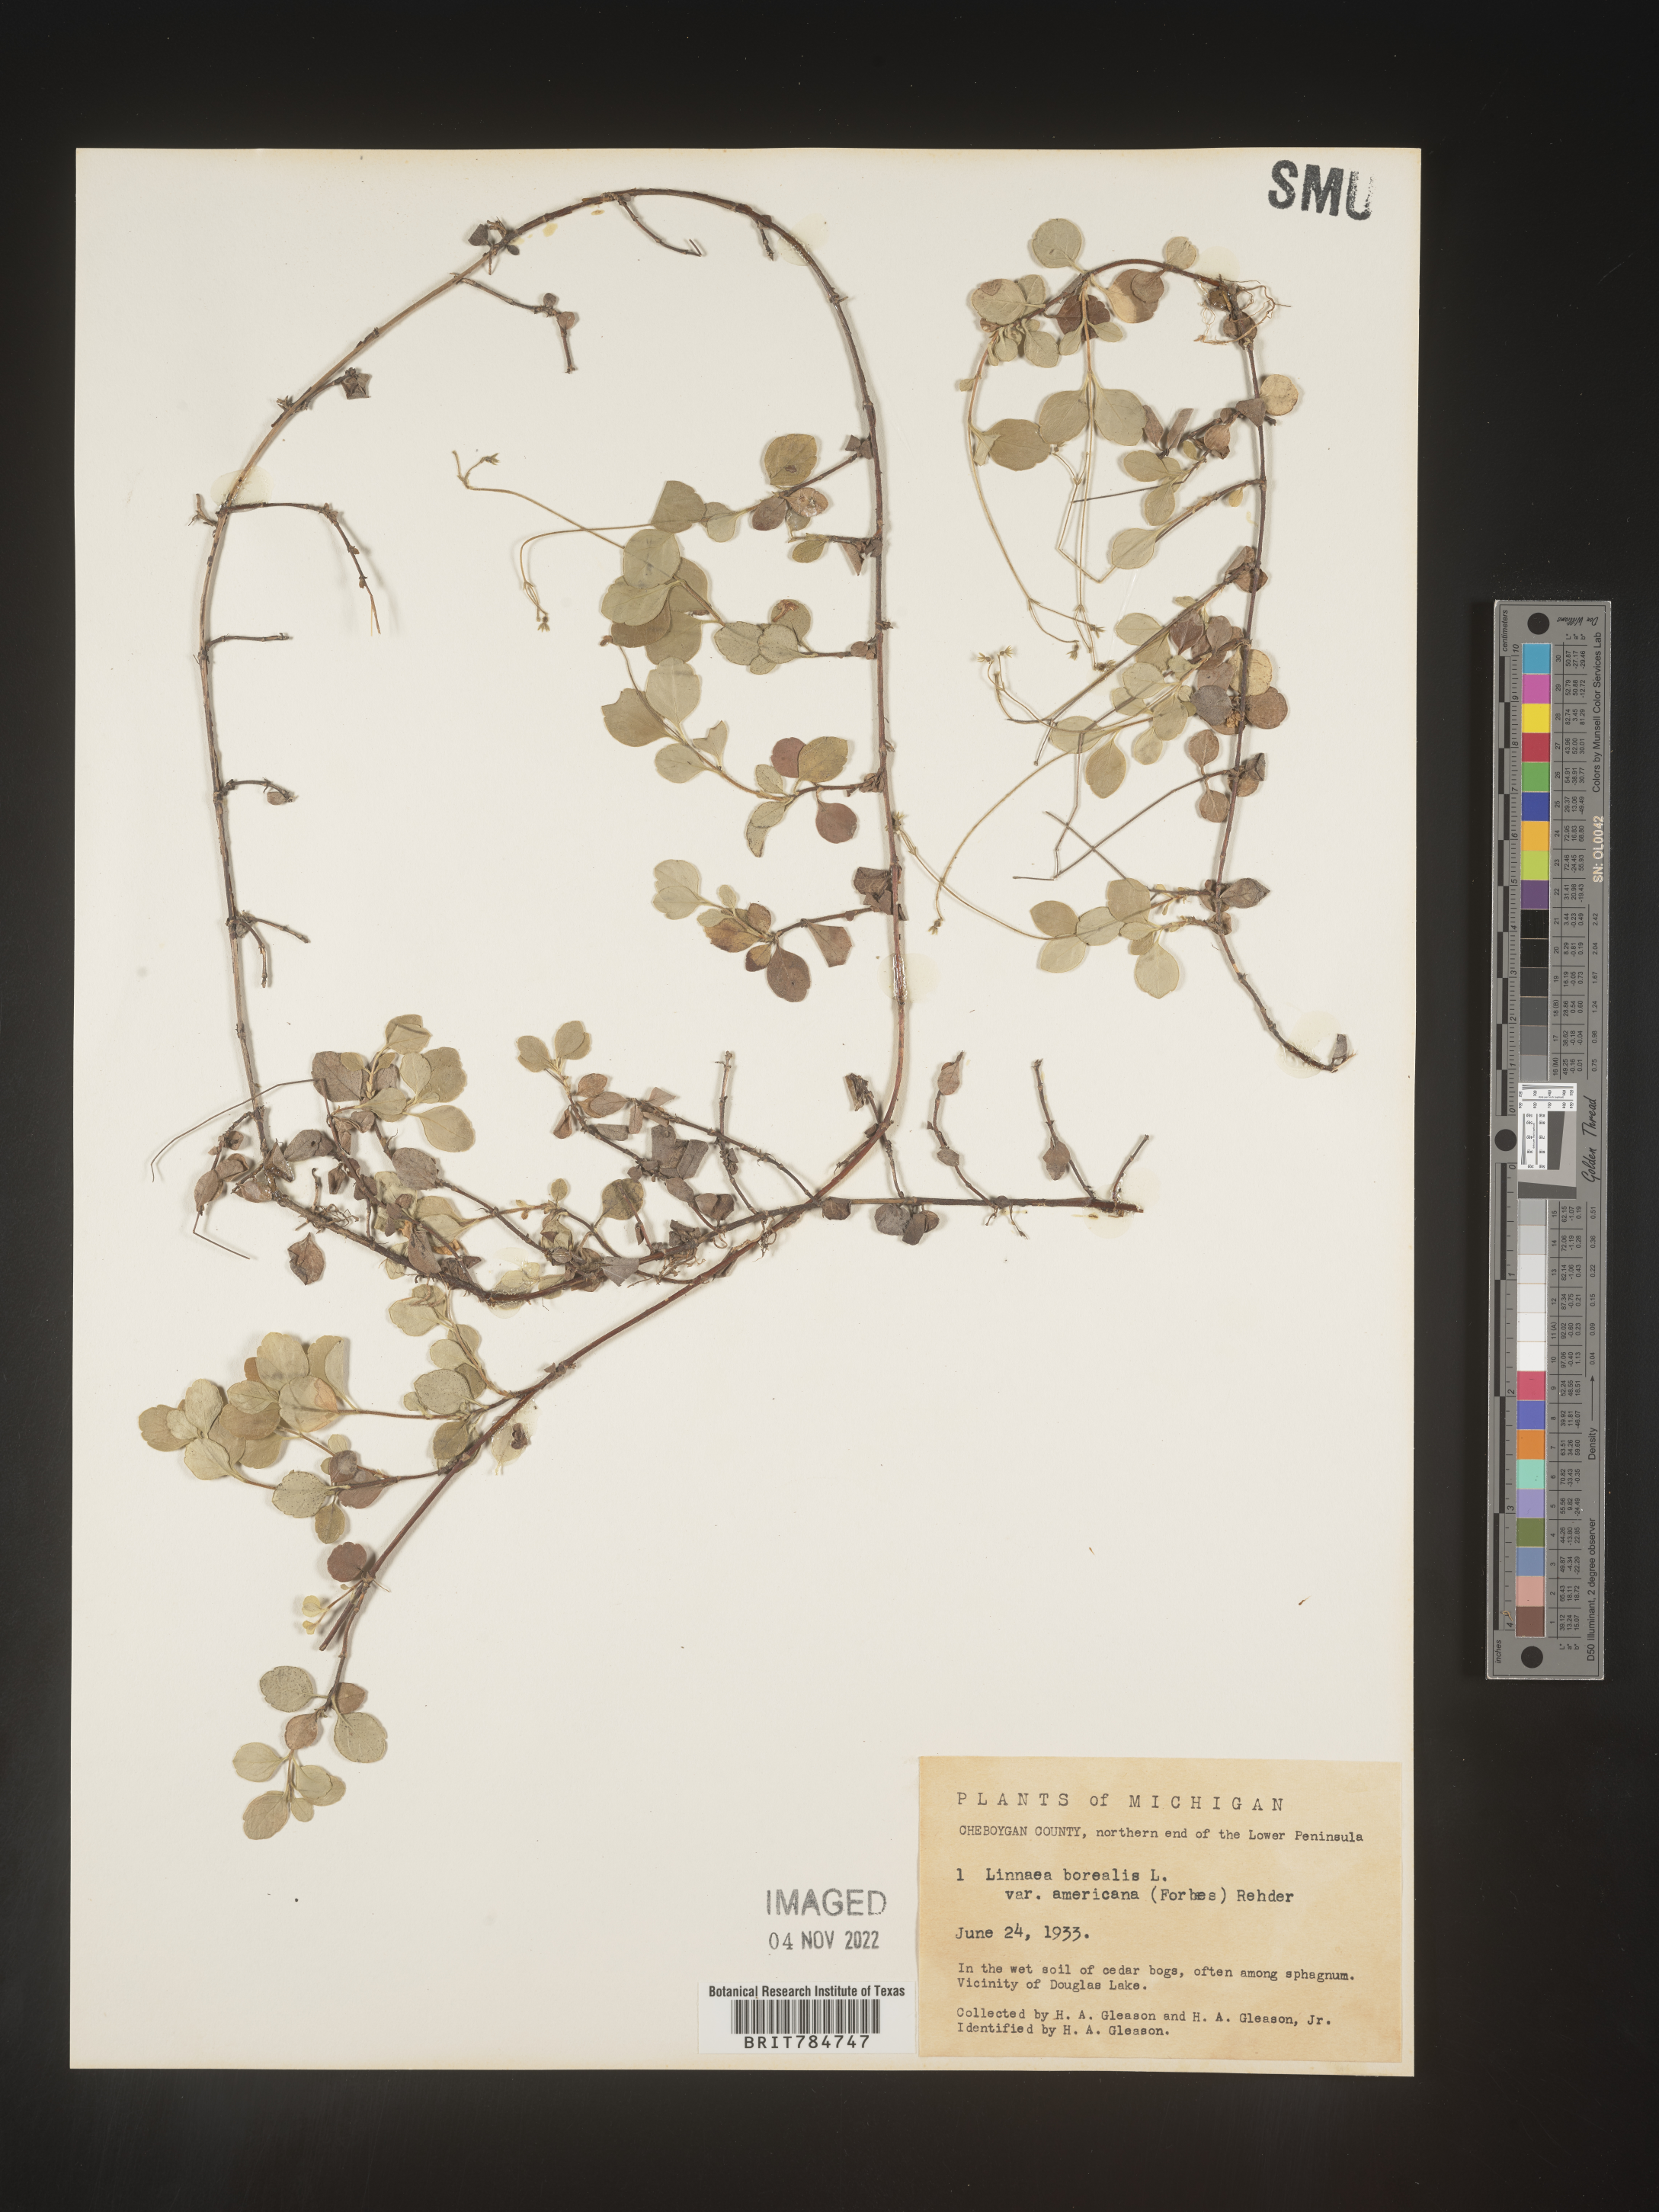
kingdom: Plantae
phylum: Tracheophyta
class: Magnoliopsida
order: Dipsacales
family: Caprifoliaceae
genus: Linnaea
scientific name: Linnaea borealis
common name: Twinflower
